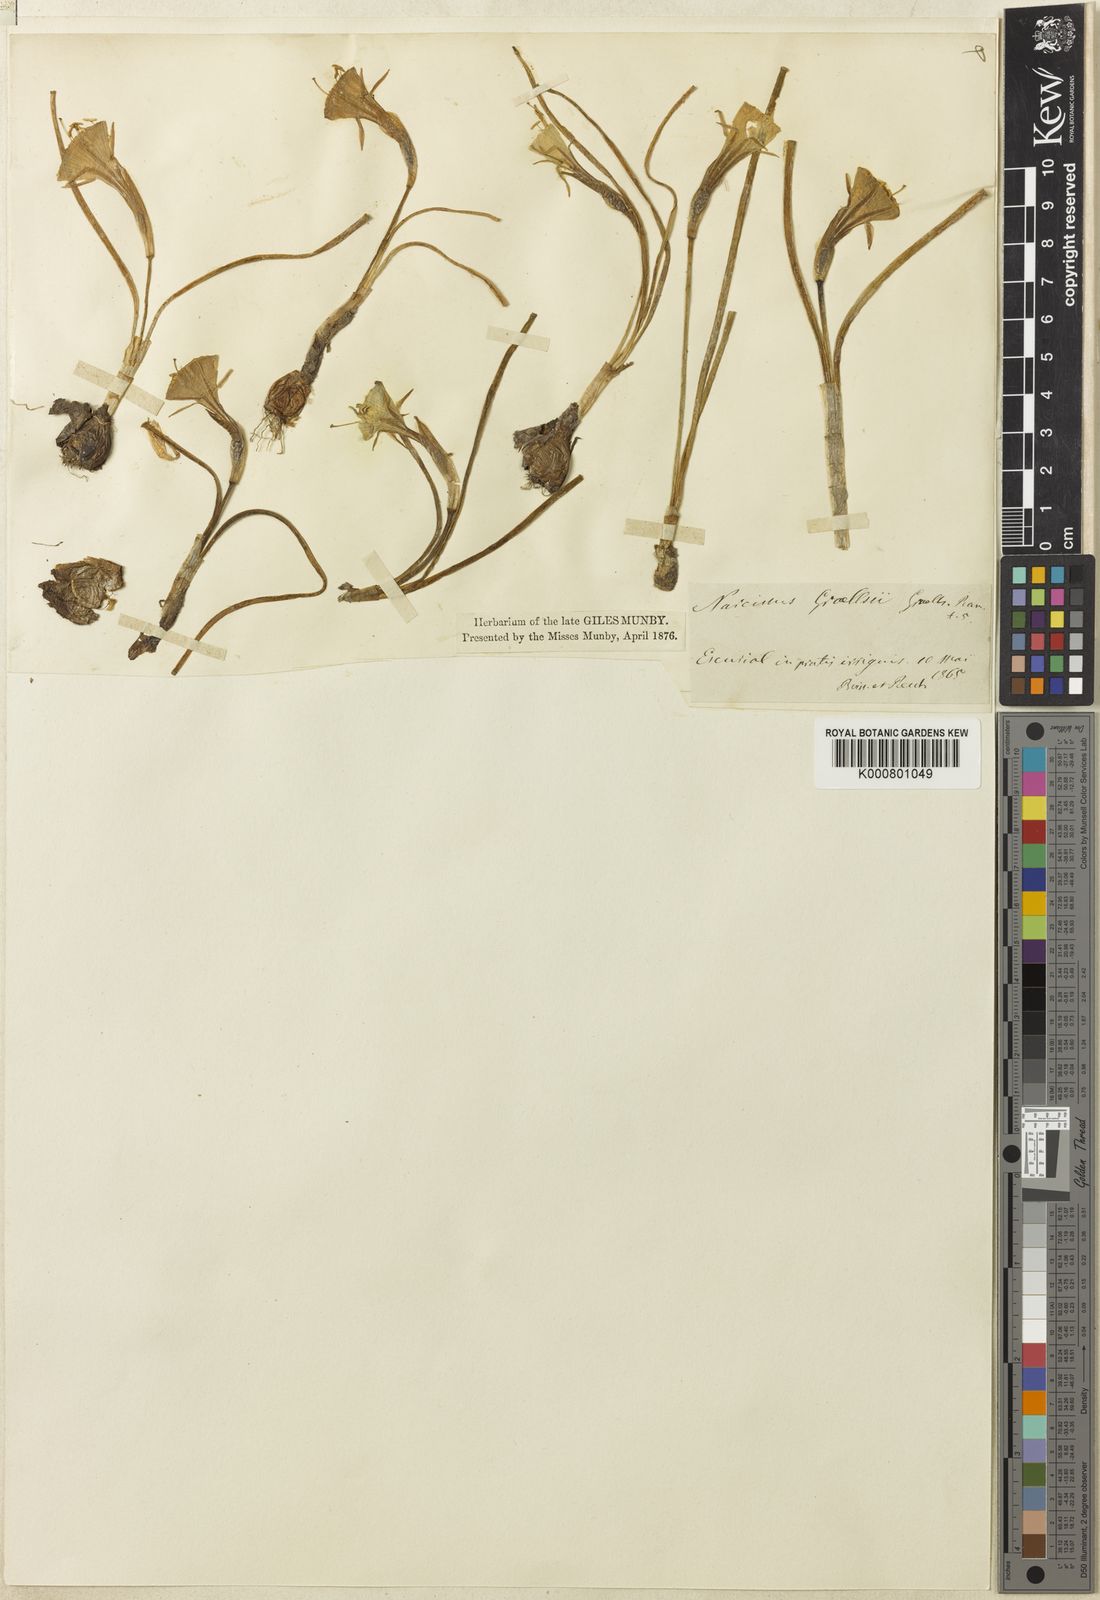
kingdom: Plantae
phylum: Tracheophyta
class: Liliopsida
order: Asparagales
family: Amaryllidaceae
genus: Narcissus
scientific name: Narcissus bulbocodium
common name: Hoop-petticoat daffodil
